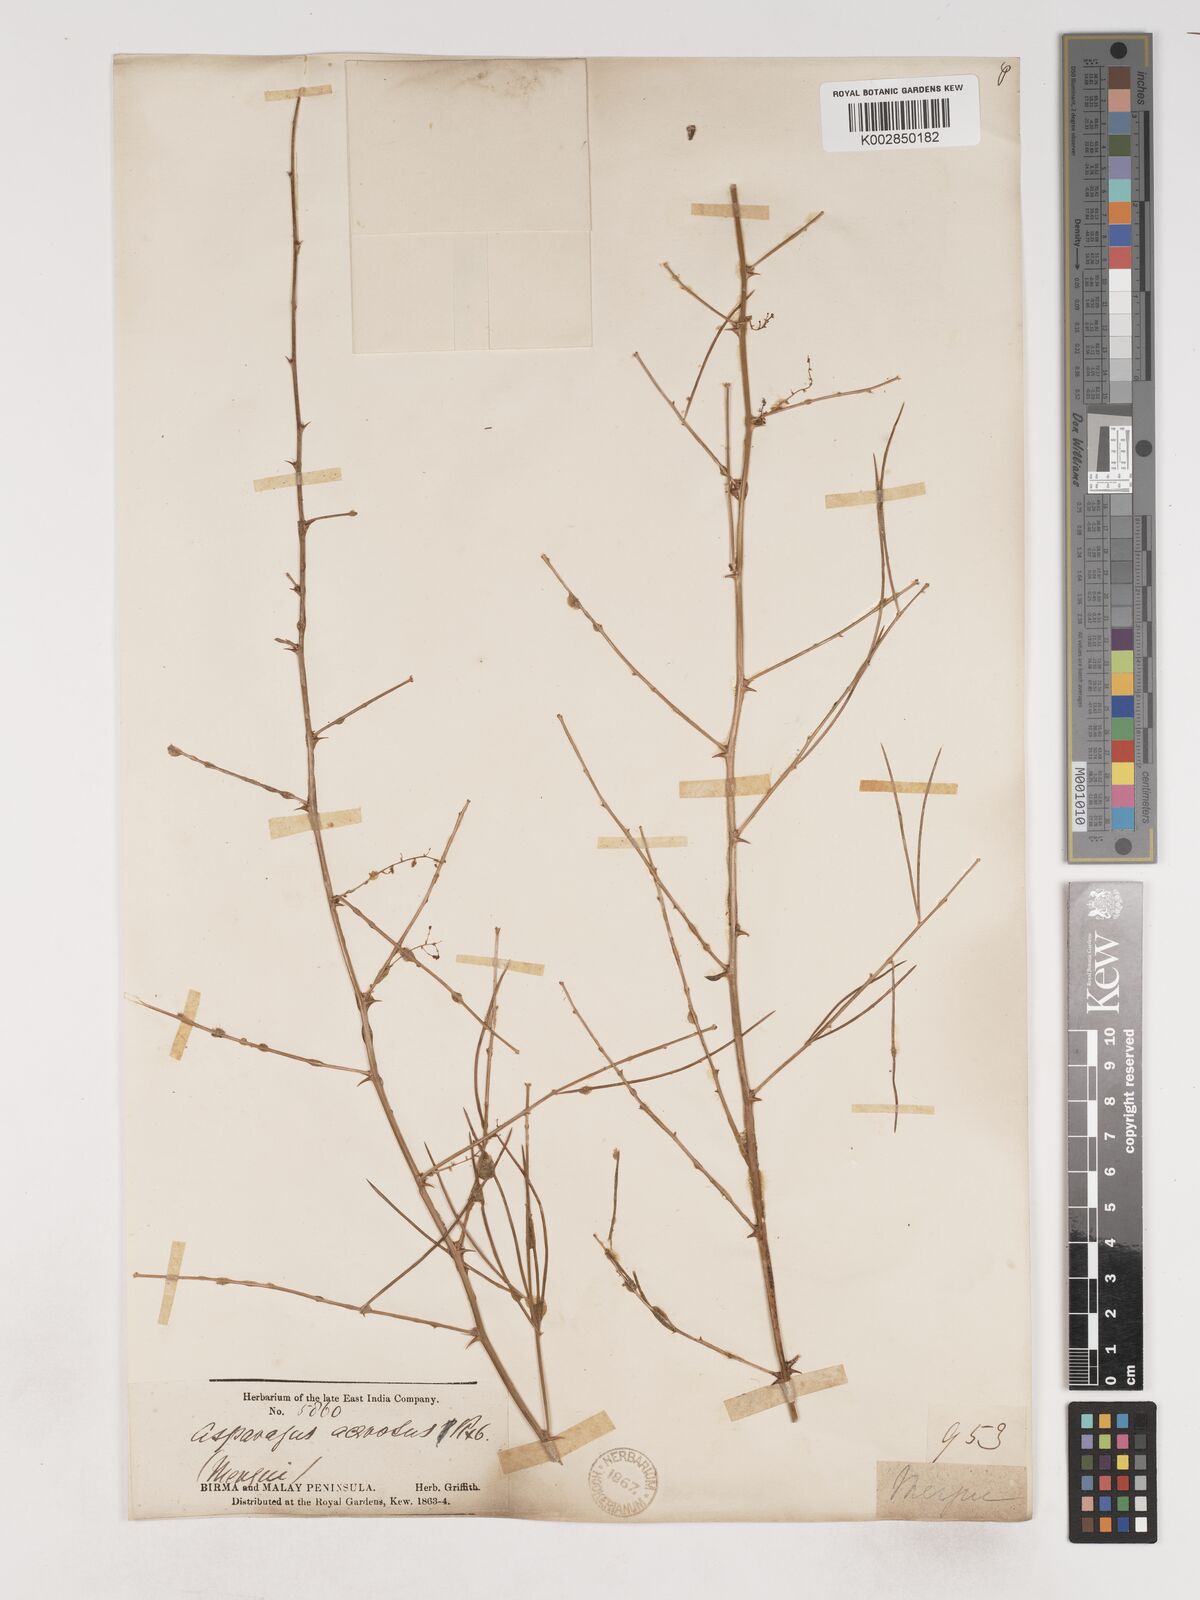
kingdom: Plantae
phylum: Tracheophyta
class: Liliopsida
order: Asparagales
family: Asparagaceae
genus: Asparagus
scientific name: Asparagus racemosus
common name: Asparagus-fern
